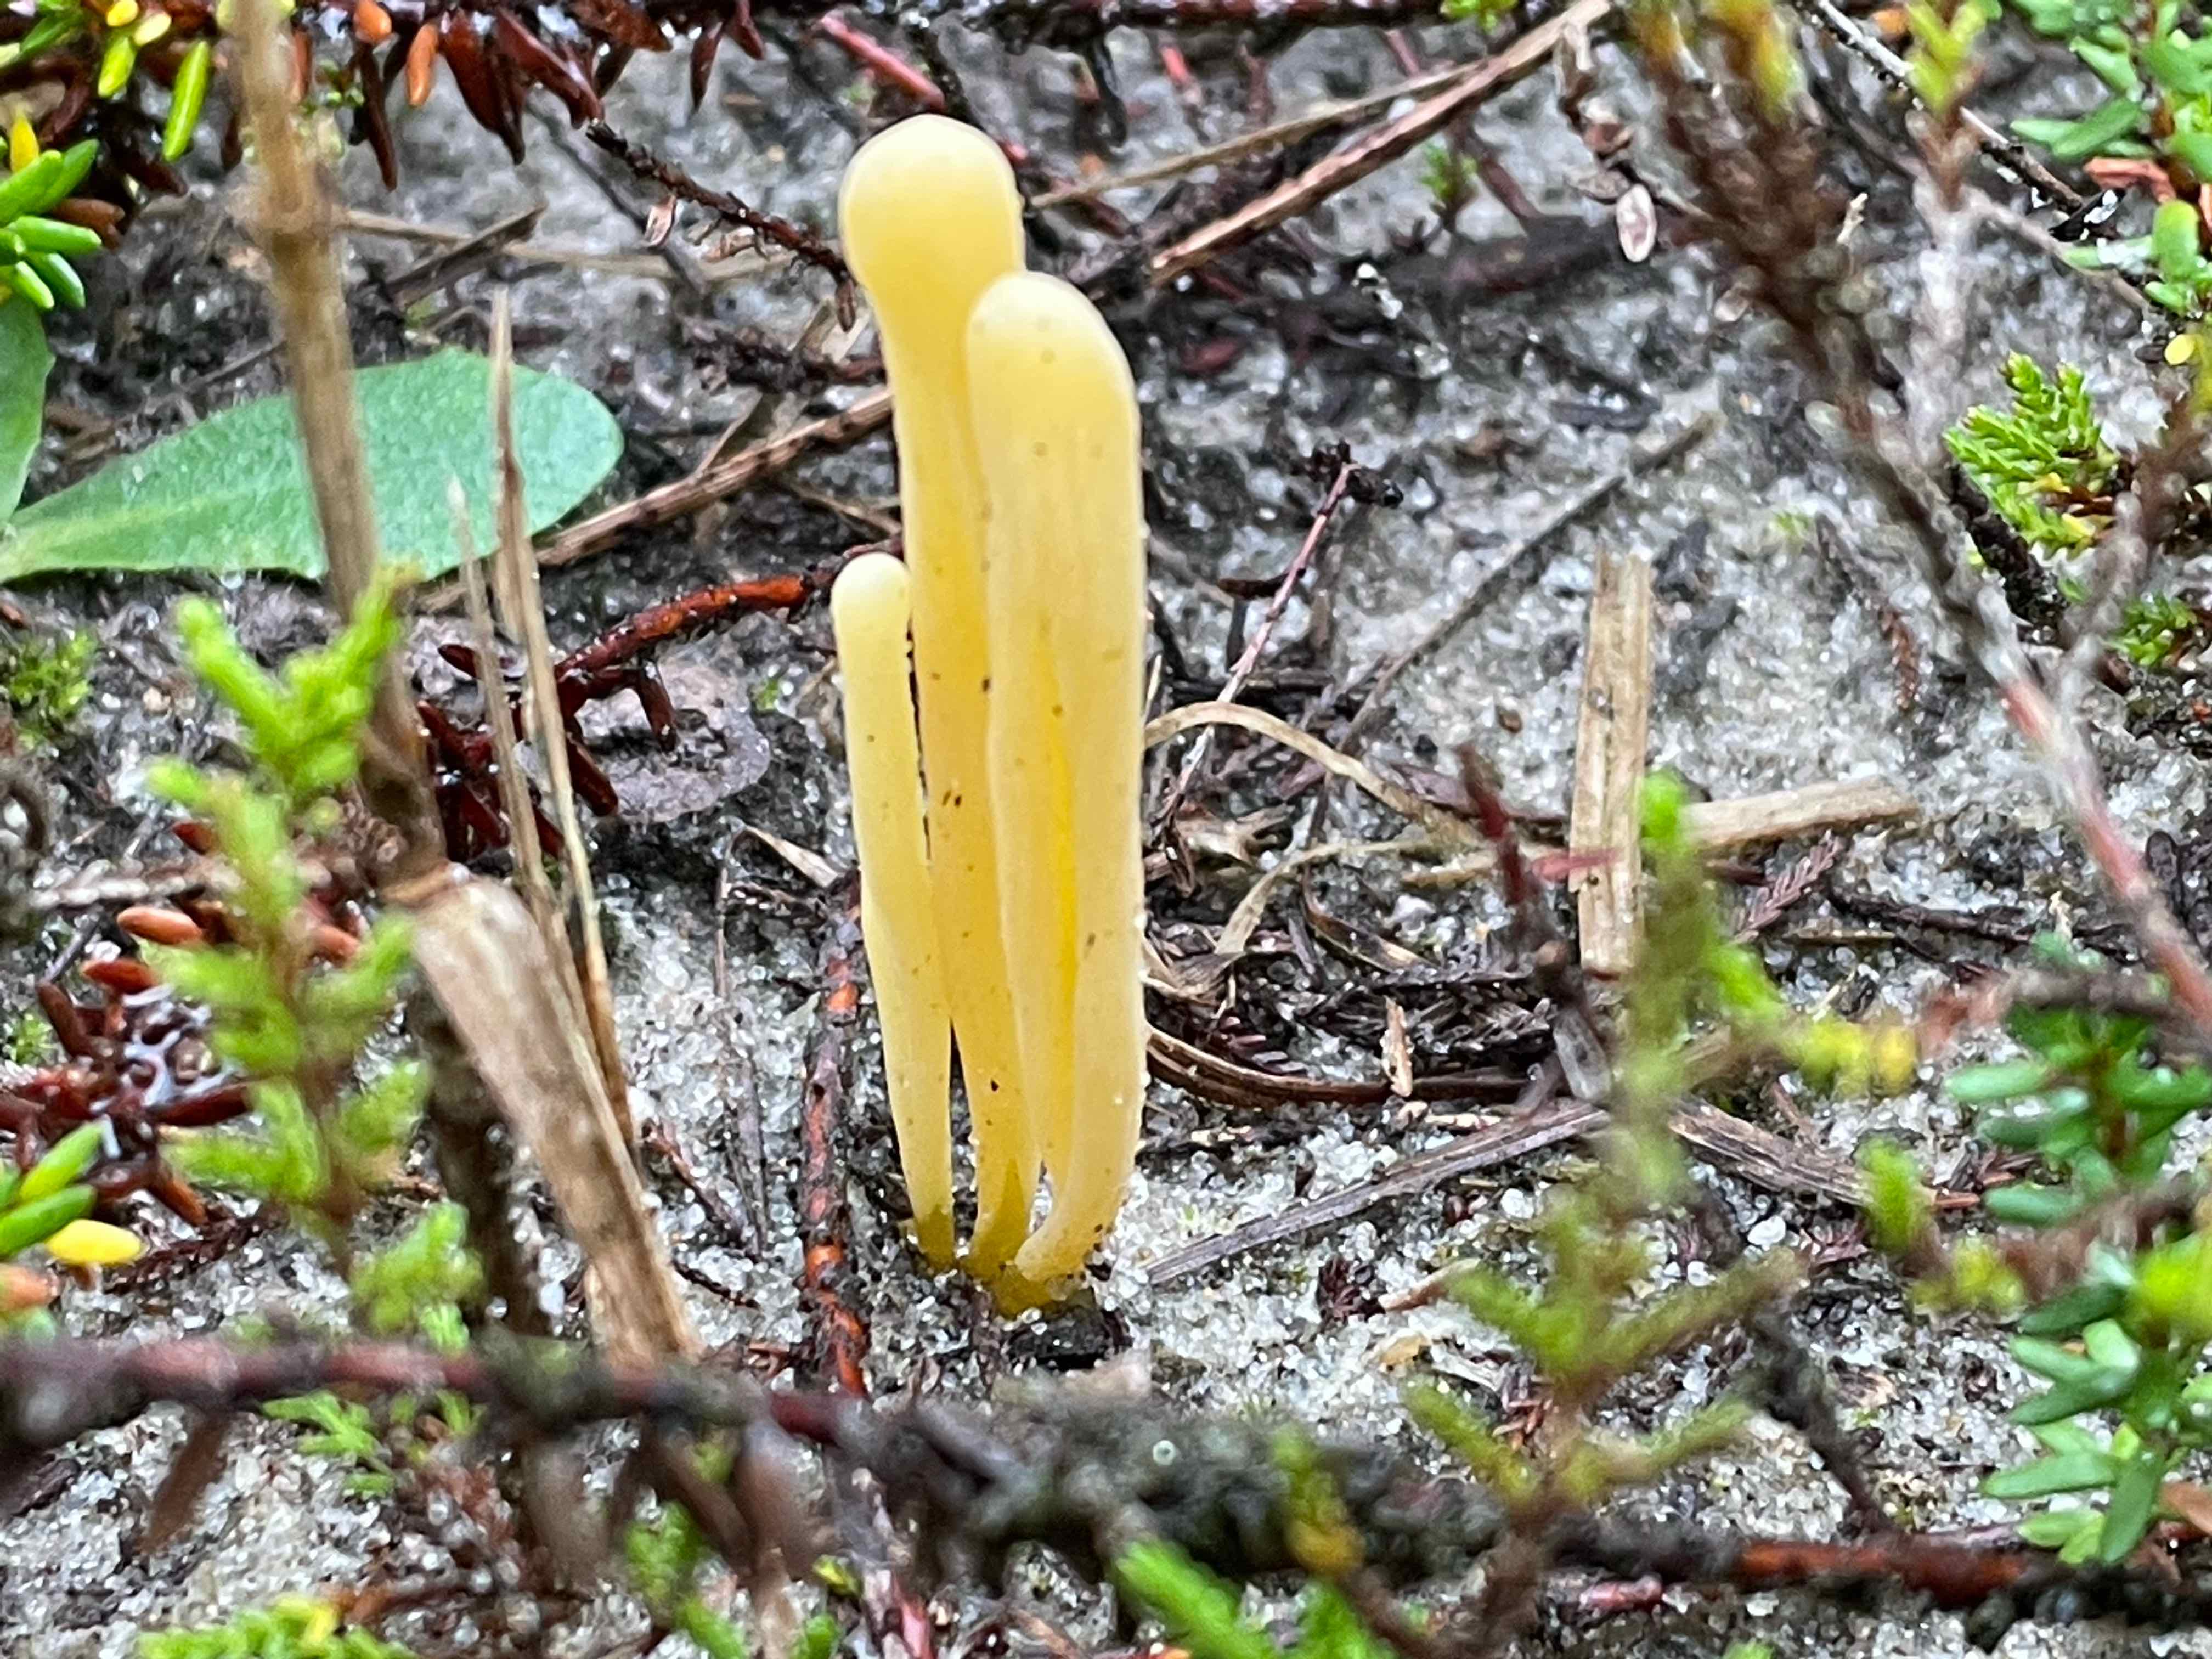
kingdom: Fungi
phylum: Basidiomycota
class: Agaricomycetes
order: Agaricales
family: Clavariaceae
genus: Clavaria
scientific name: Clavaria argillacea
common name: lerfarvet køllesvamp
